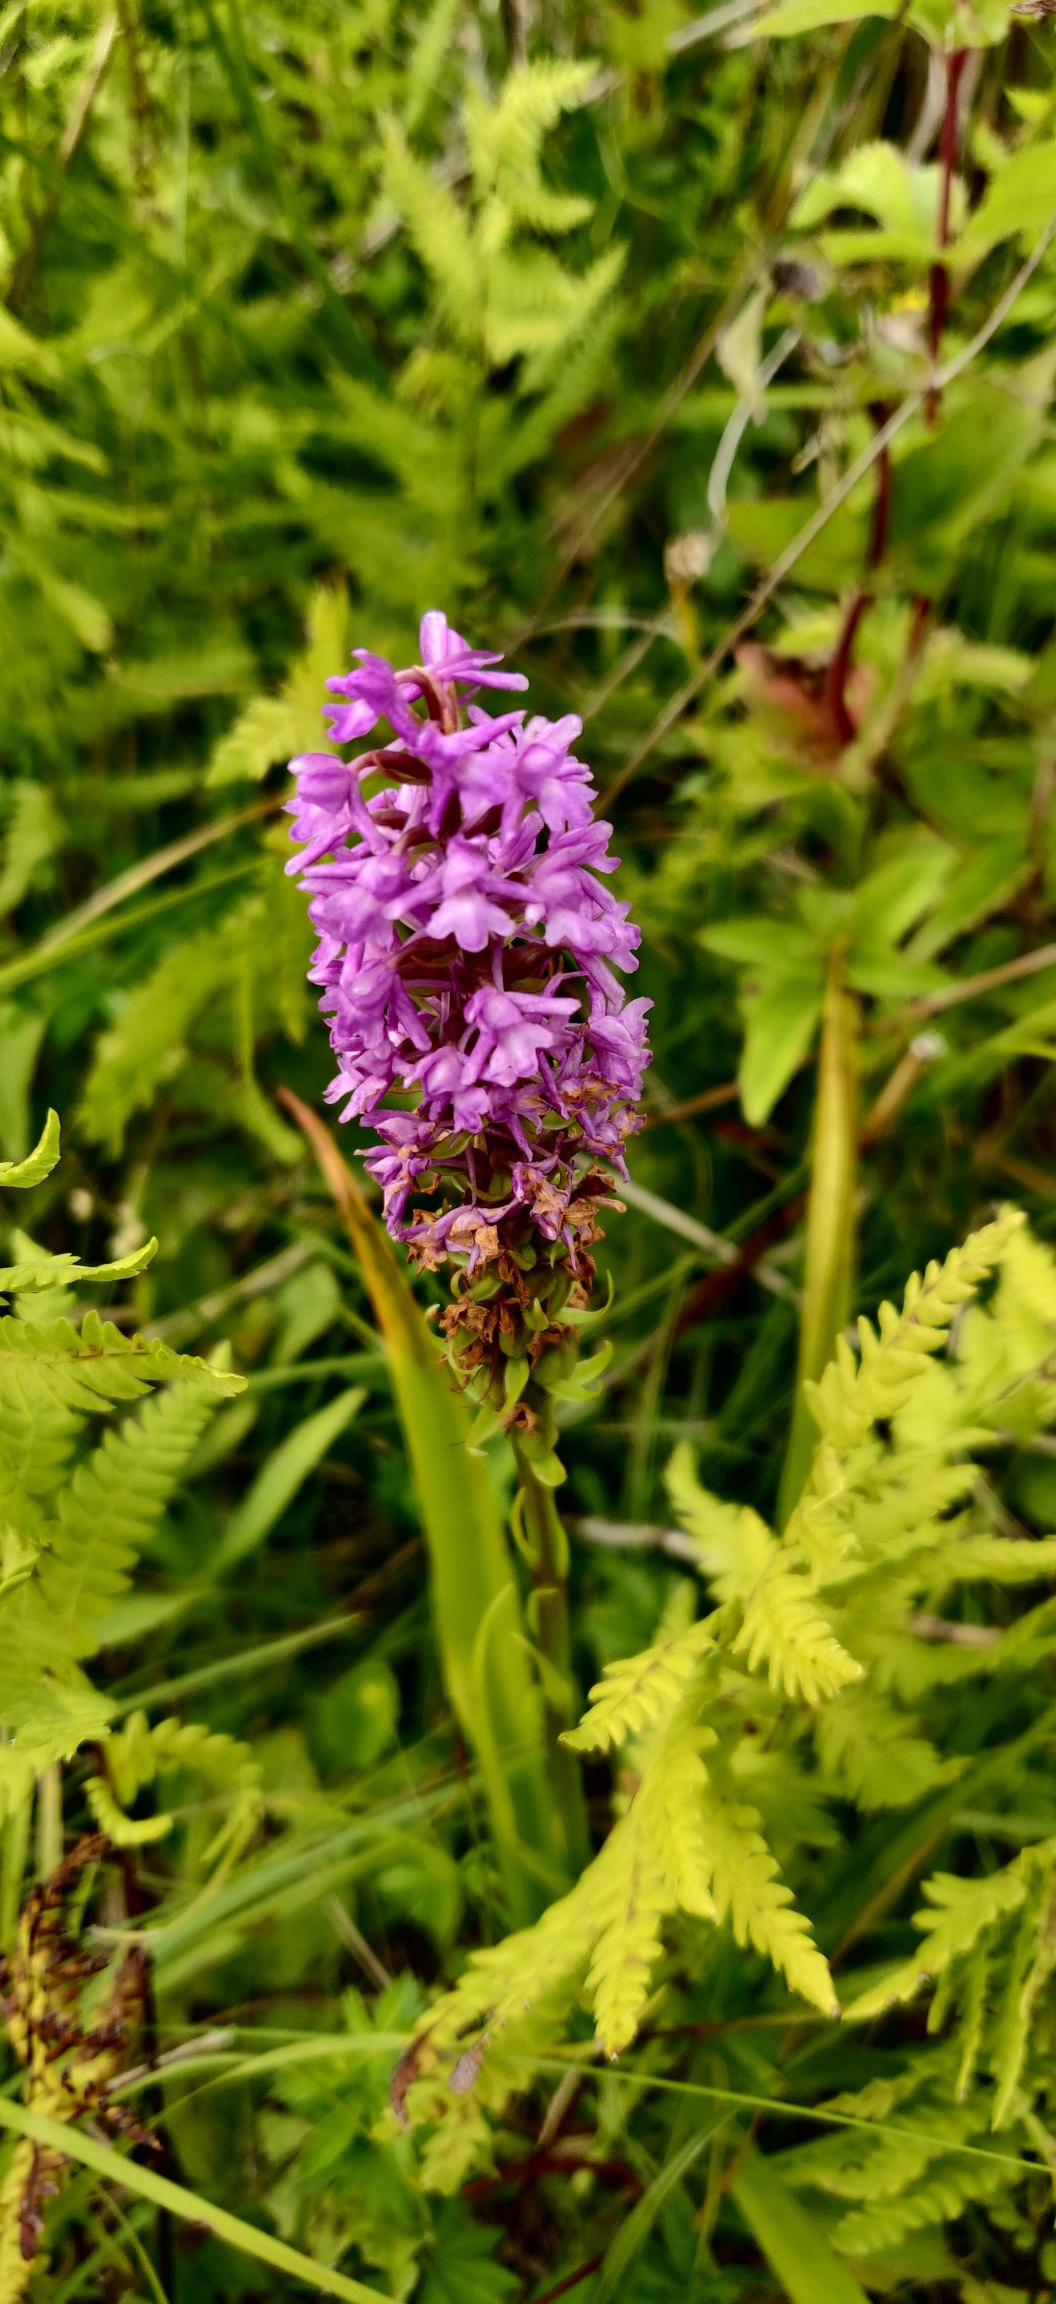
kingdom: Plantae
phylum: Tracheophyta
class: Liliopsida
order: Asparagales
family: Orchidaceae
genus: Gymnadenia
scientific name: Gymnadenia conopsea
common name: Trådspore
